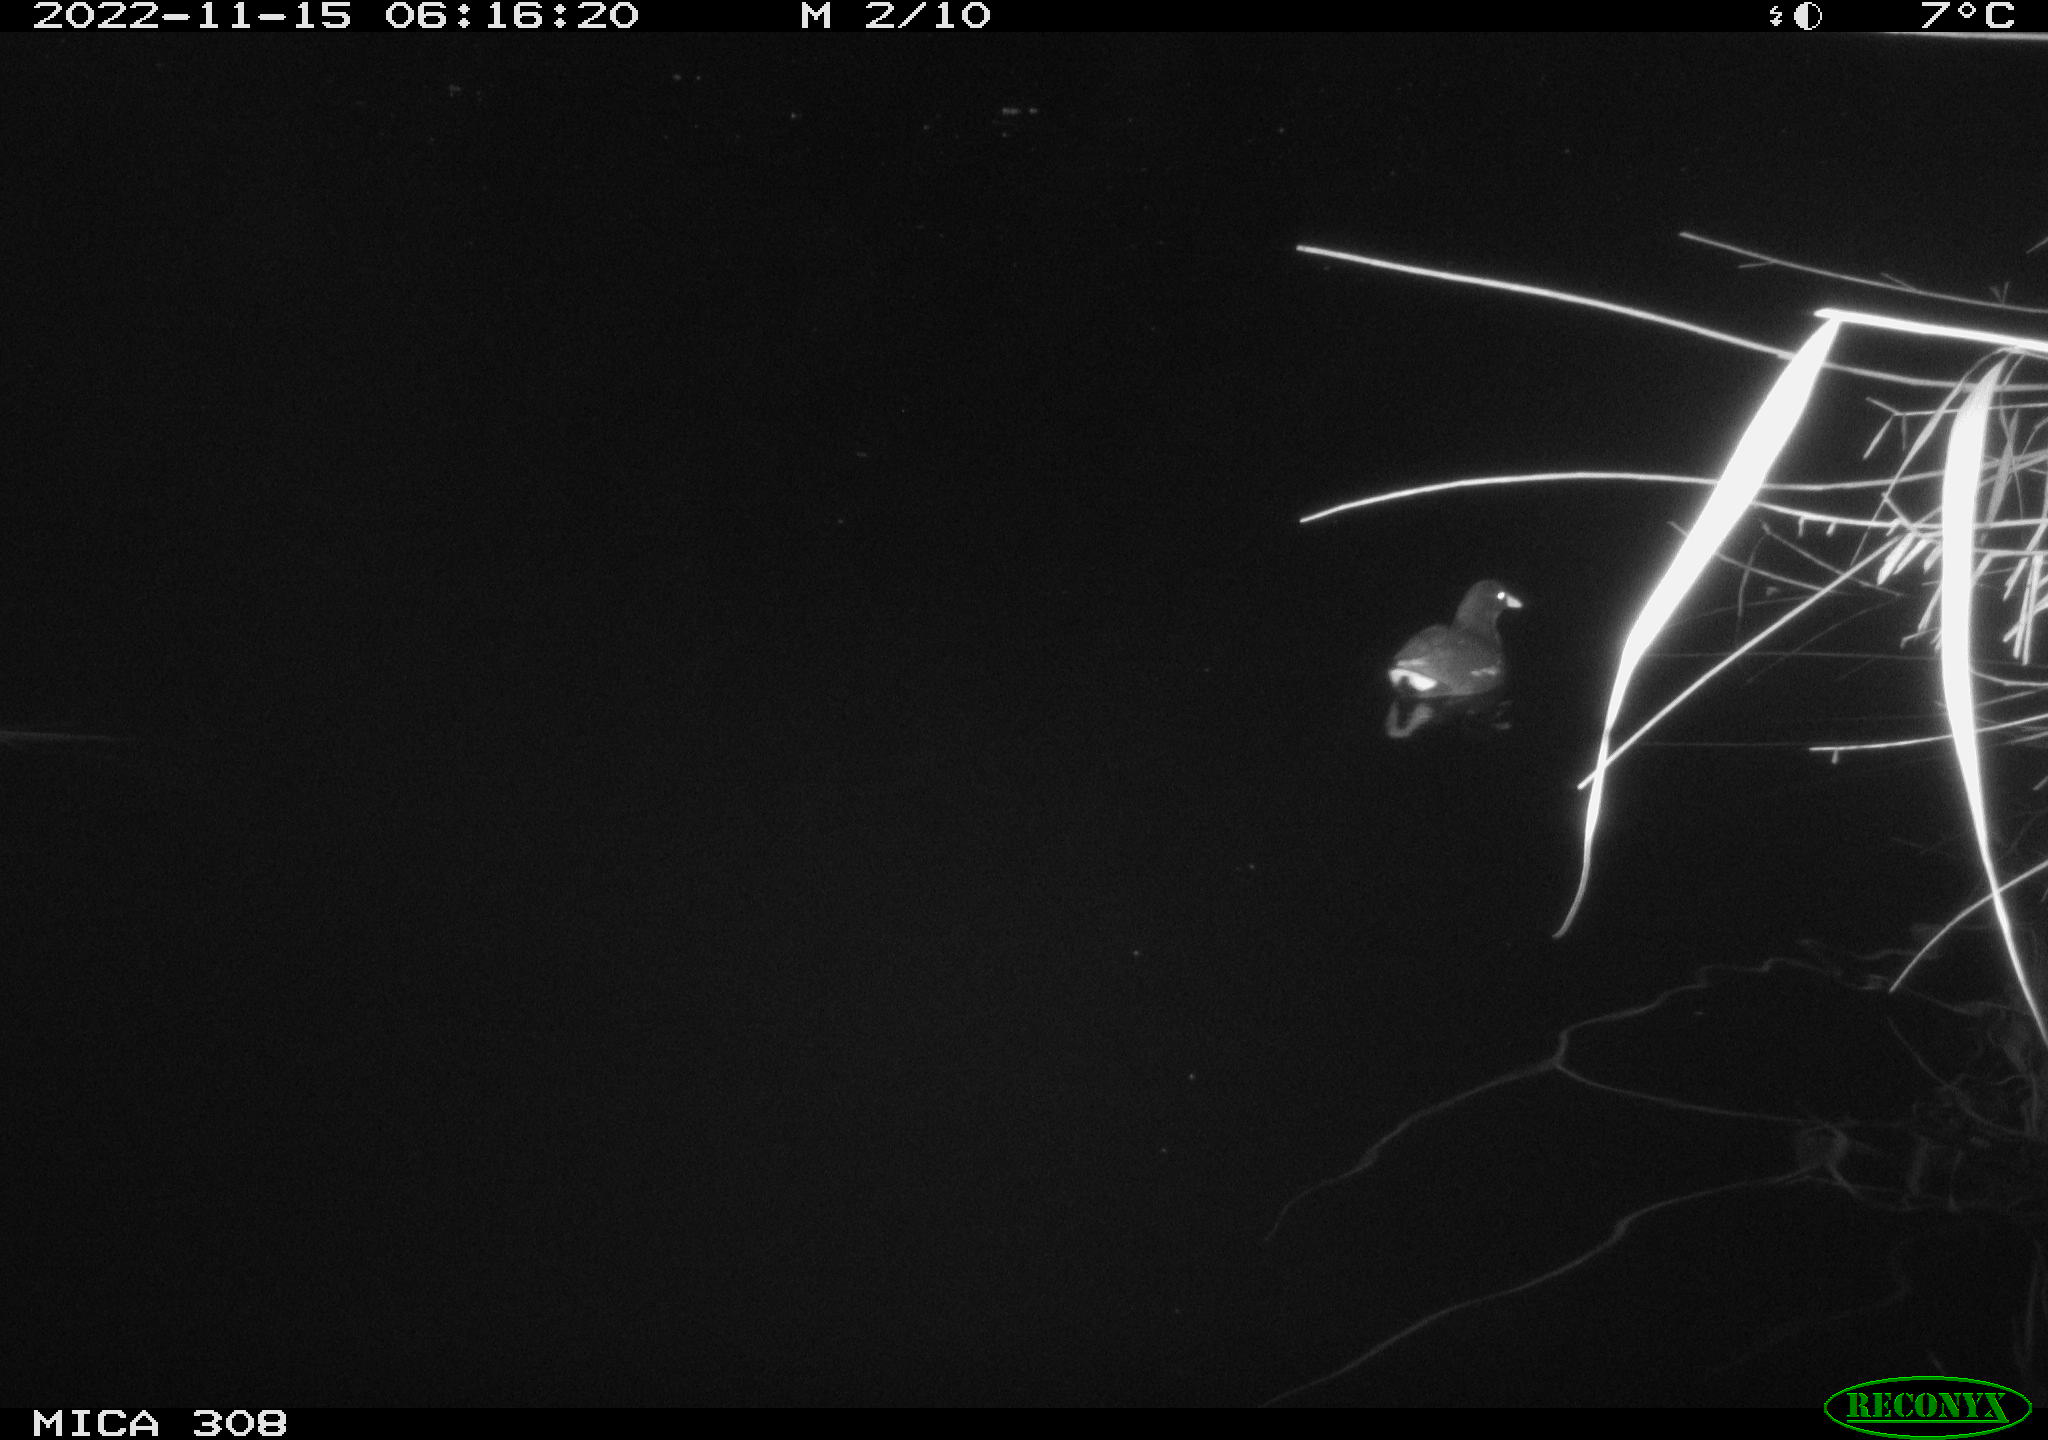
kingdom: Animalia
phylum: Chordata
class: Aves
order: Gruiformes
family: Rallidae
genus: Gallinula
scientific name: Gallinula chloropus
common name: Common moorhen
